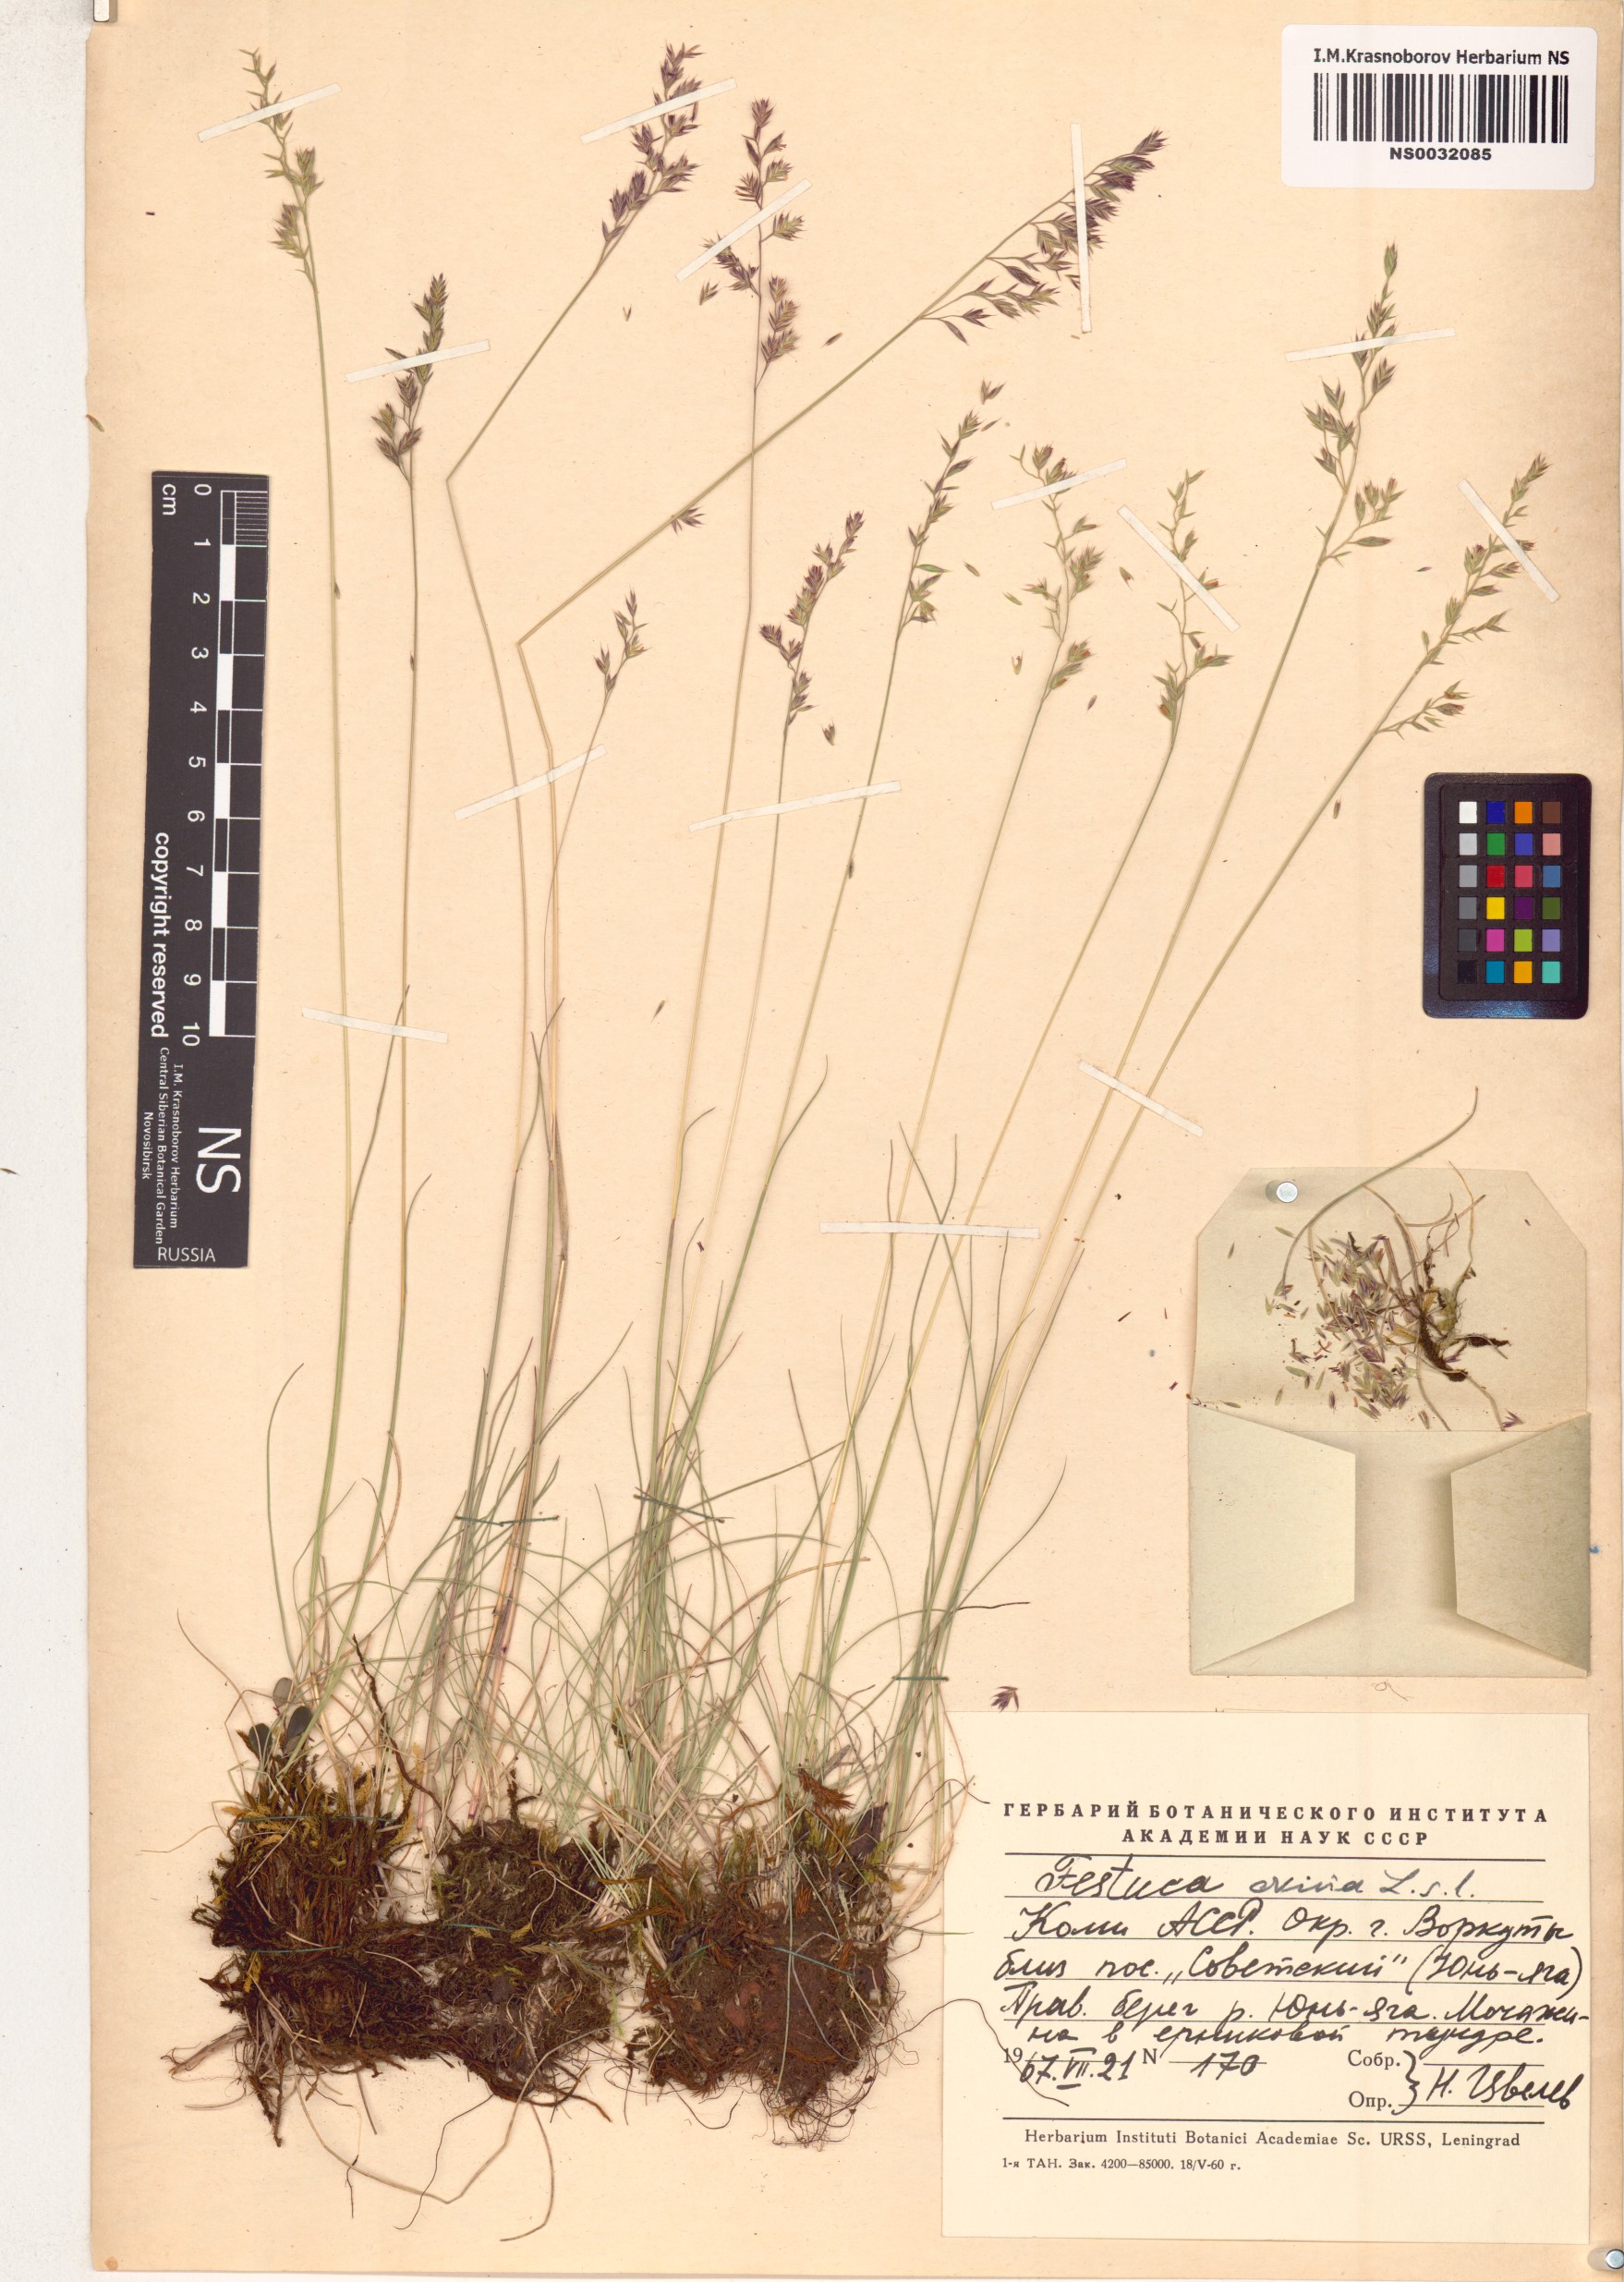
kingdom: Plantae
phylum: Tracheophyta
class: Liliopsida
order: Poales
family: Poaceae
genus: Festuca
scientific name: Festuca ovina
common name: Sheep fescue
